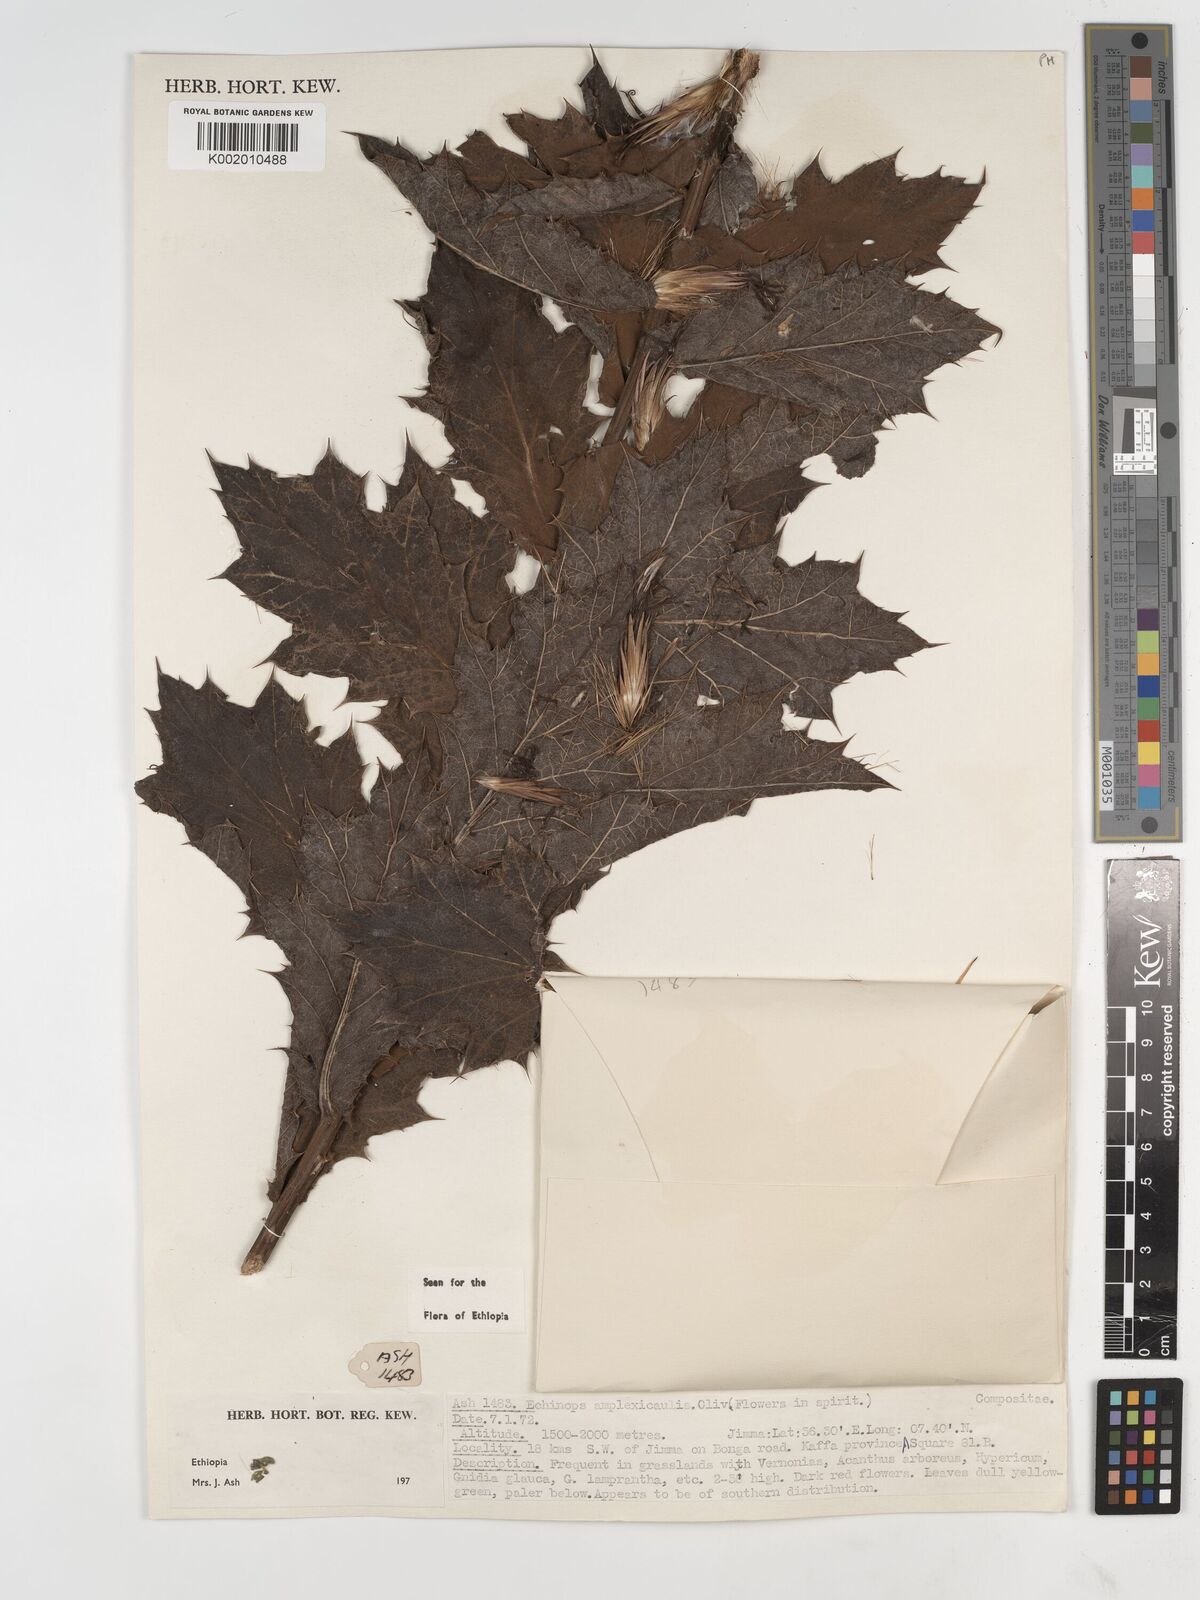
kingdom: Plantae
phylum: Tracheophyta
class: Magnoliopsida
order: Asterales
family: Asteraceae
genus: Echinops
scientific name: Echinops amplexicaulis
